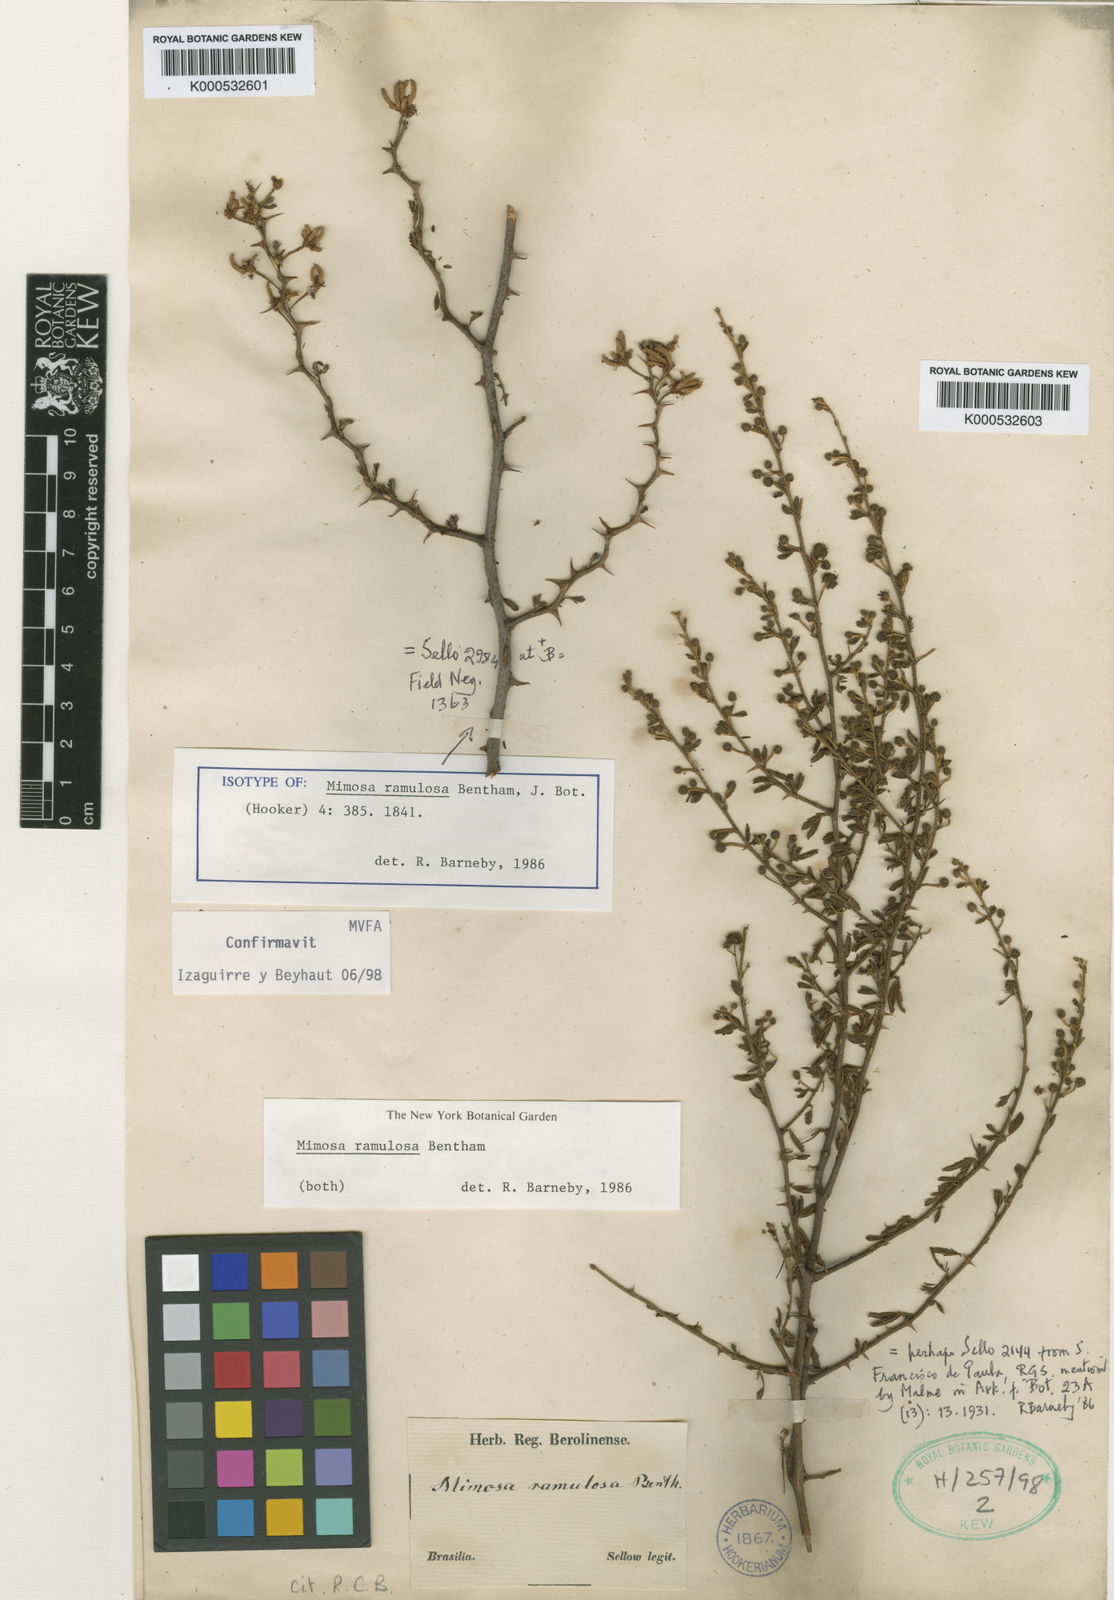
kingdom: Plantae
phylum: Tracheophyta
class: Magnoliopsida
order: Fabales
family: Fabaceae
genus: Mimosa
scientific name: Mimosa ramulosa
